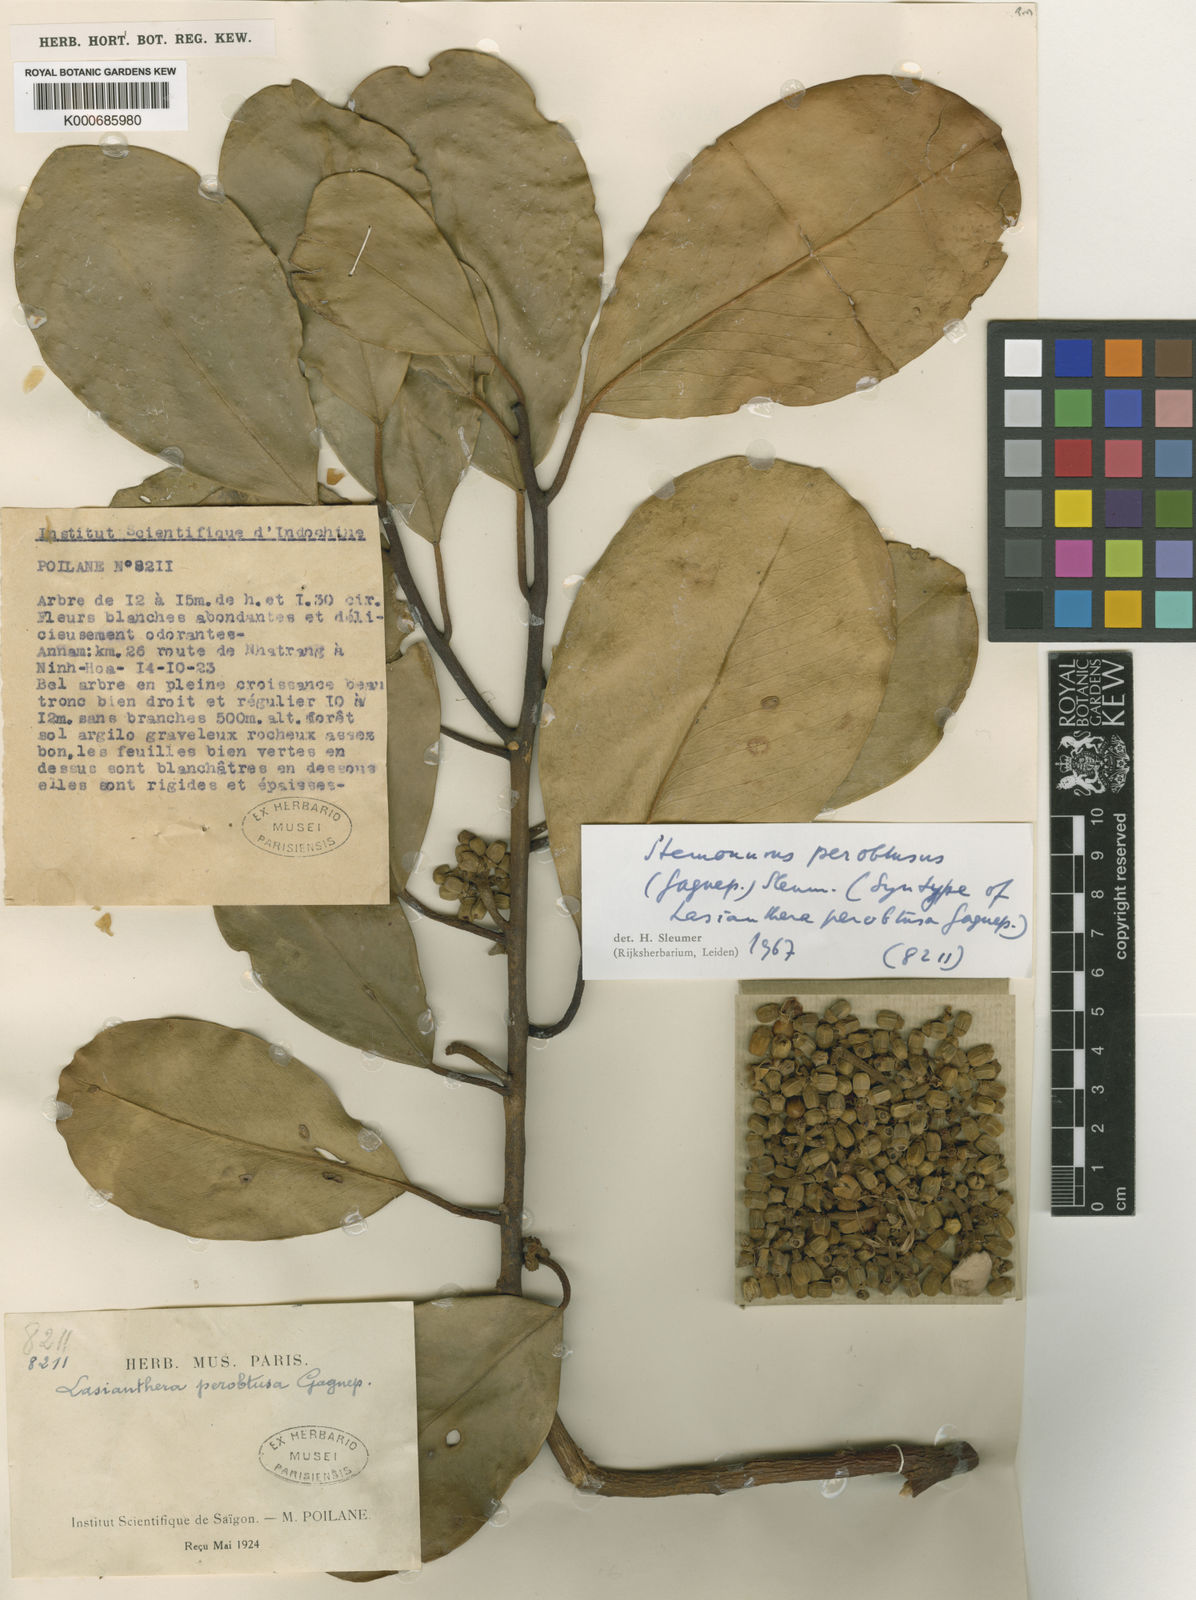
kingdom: Plantae
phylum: Tracheophyta
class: Magnoliopsida
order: Cardiopteridales
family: Stemonuraceae
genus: Stemonurus
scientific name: Stemonurus perobtusus
